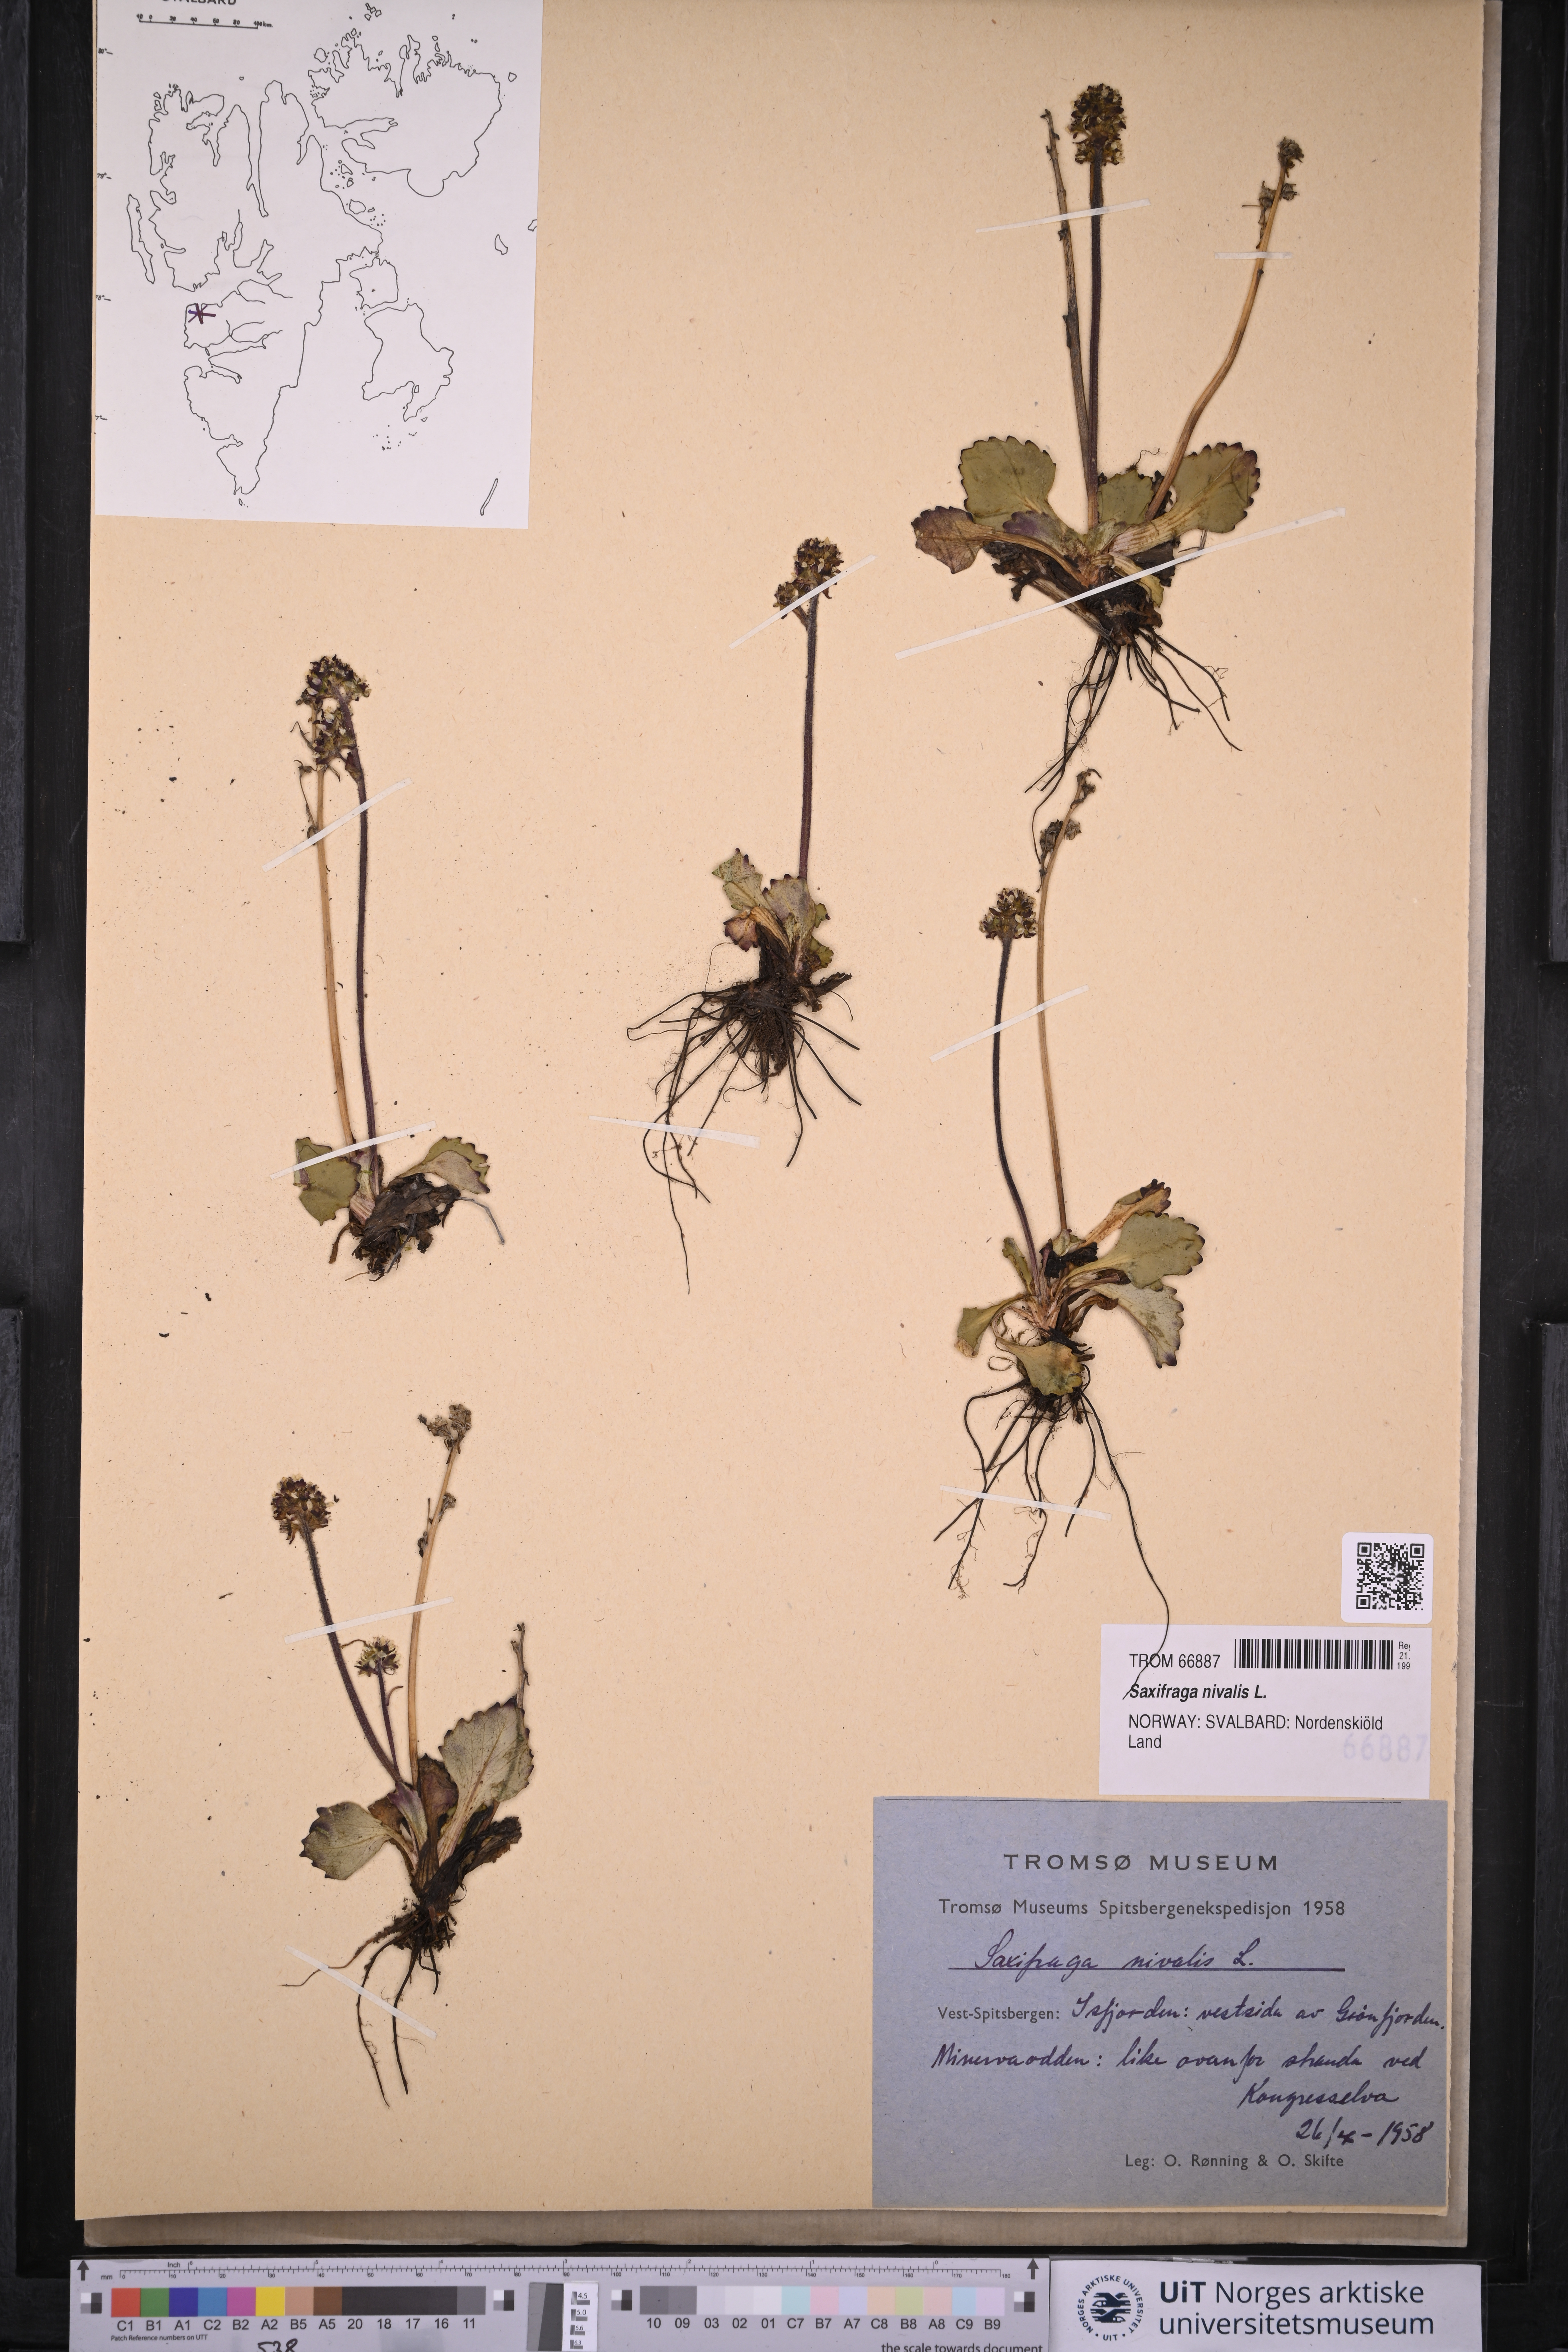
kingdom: Plantae
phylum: Tracheophyta
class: Magnoliopsida
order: Saxifragales
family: Saxifragaceae
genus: Micranthes
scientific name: Micranthes nivalis
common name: Alpine saxifrage
